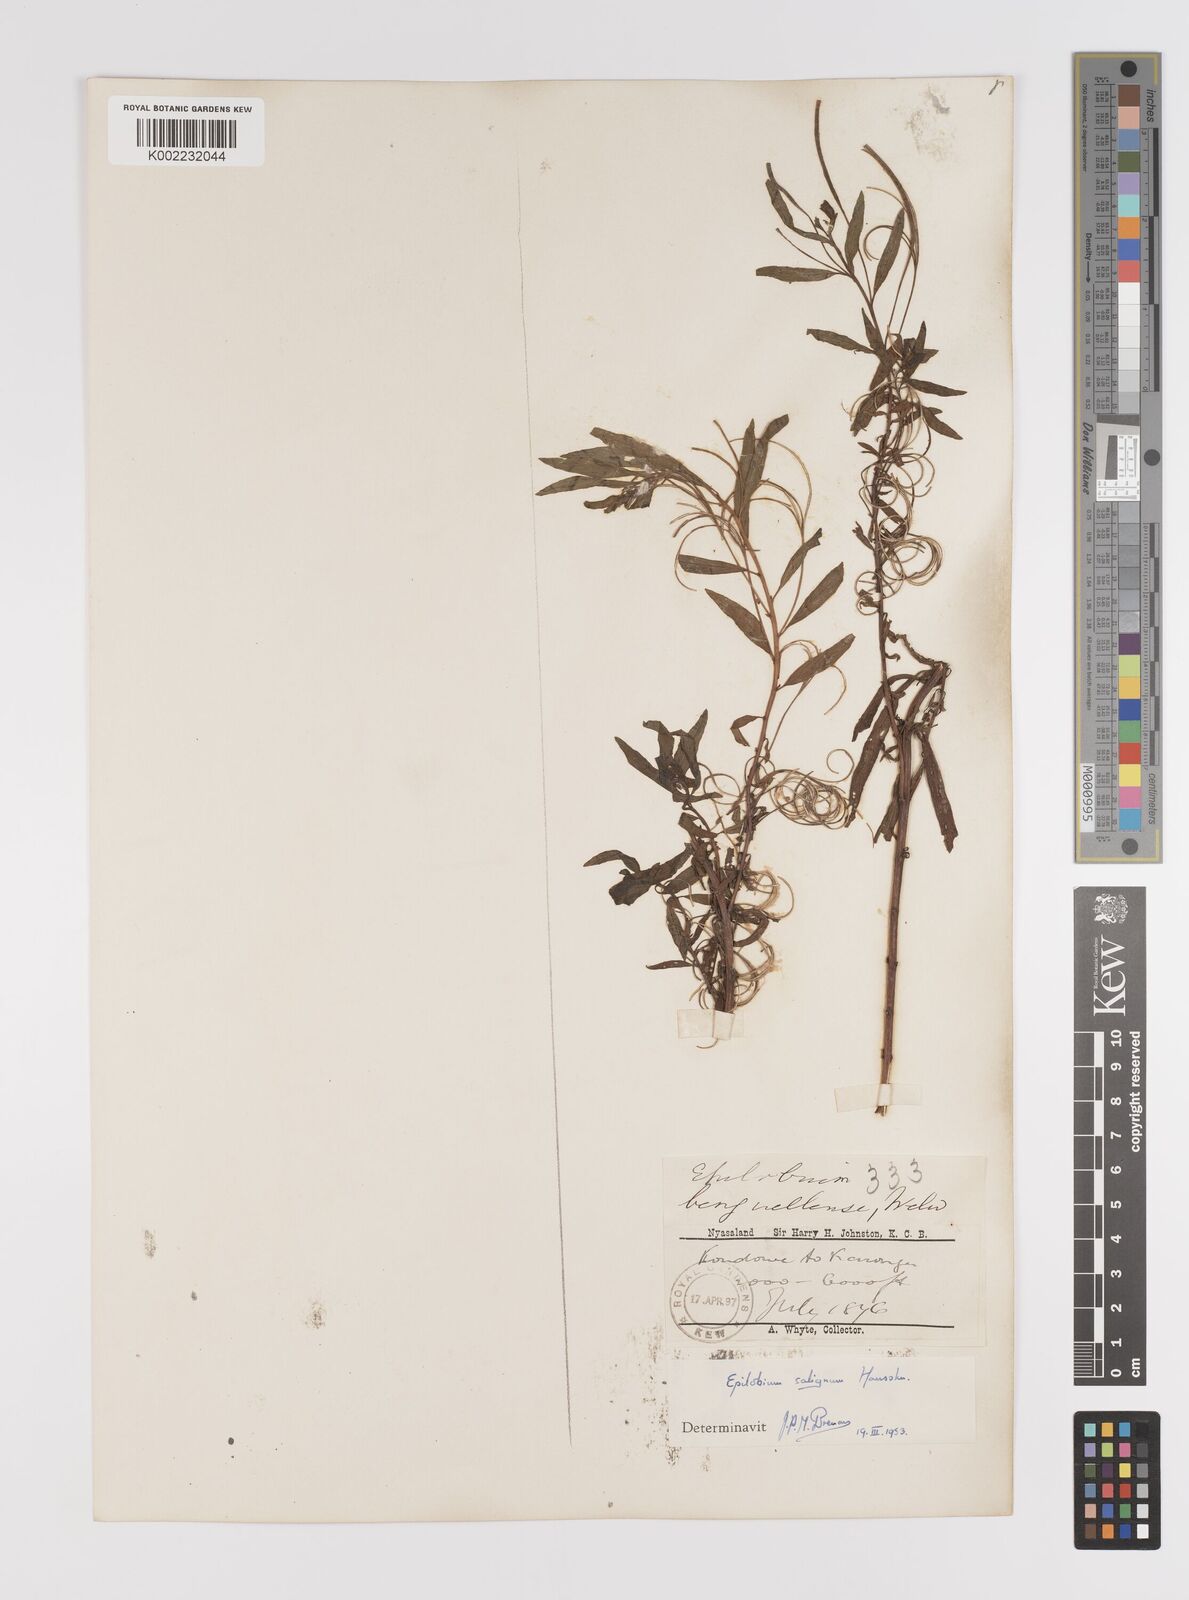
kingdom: Plantae
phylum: Tracheophyta
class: Magnoliopsida
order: Myrtales
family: Onagraceae
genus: Epilobium
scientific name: Epilobium salignum
